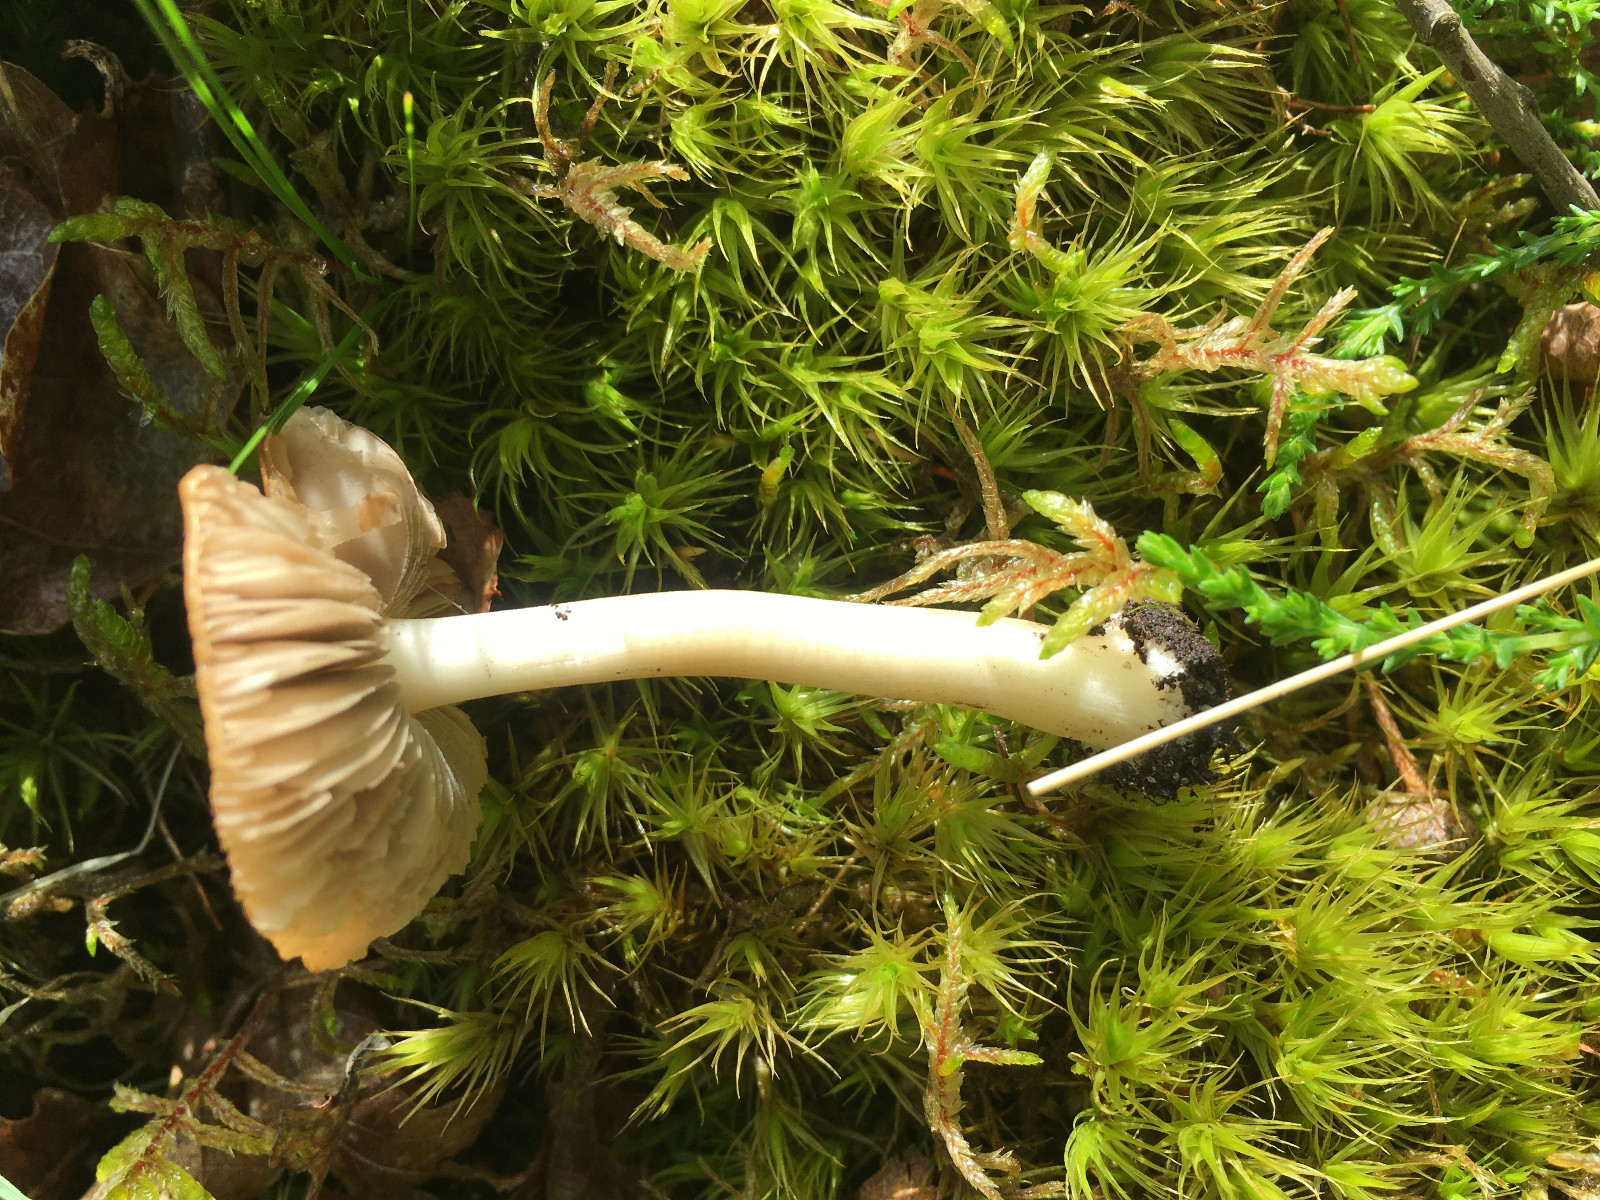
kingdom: Fungi
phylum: Basidiomycota
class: Agaricomycetes
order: Agaricales
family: Inocybaceae
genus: Inocybe
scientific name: Inocybe
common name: trævlhat
